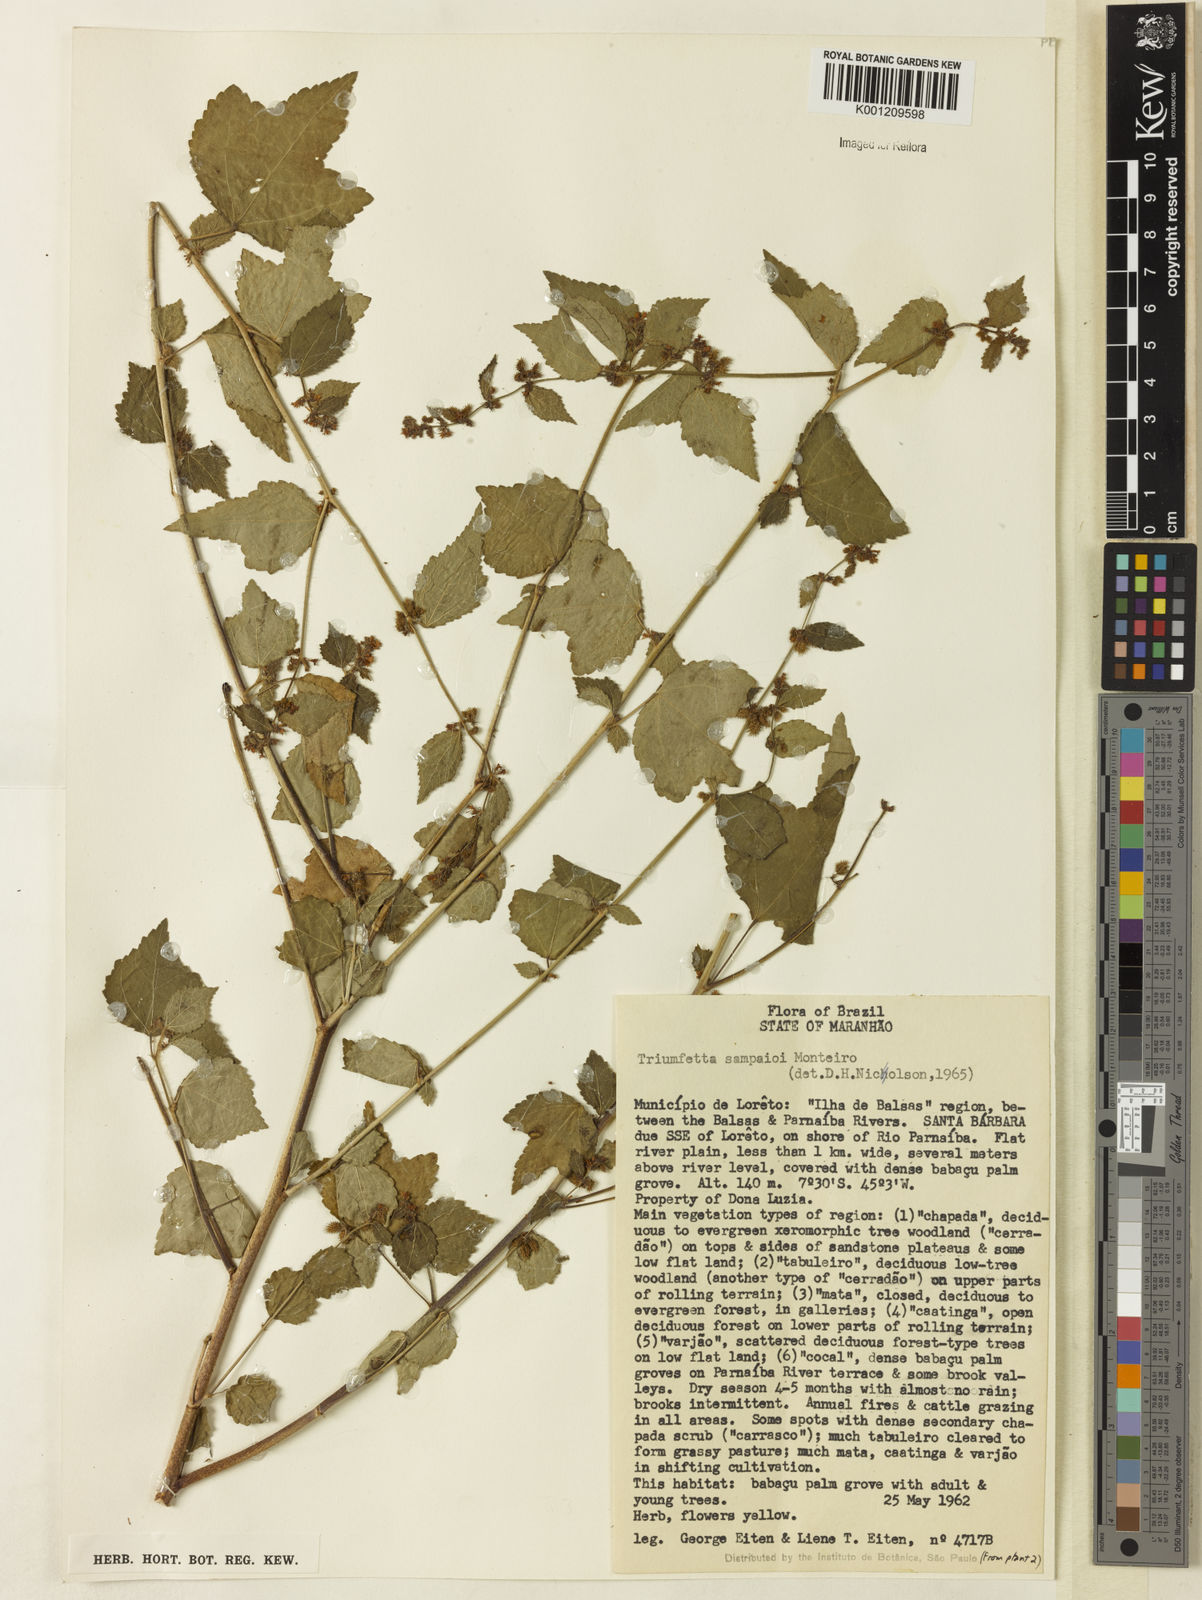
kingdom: Plantae
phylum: Tracheophyta
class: Magnoliopsida
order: Malvales
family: Malvaceae
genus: Triumfetta
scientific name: Triumfetta sampaioi
